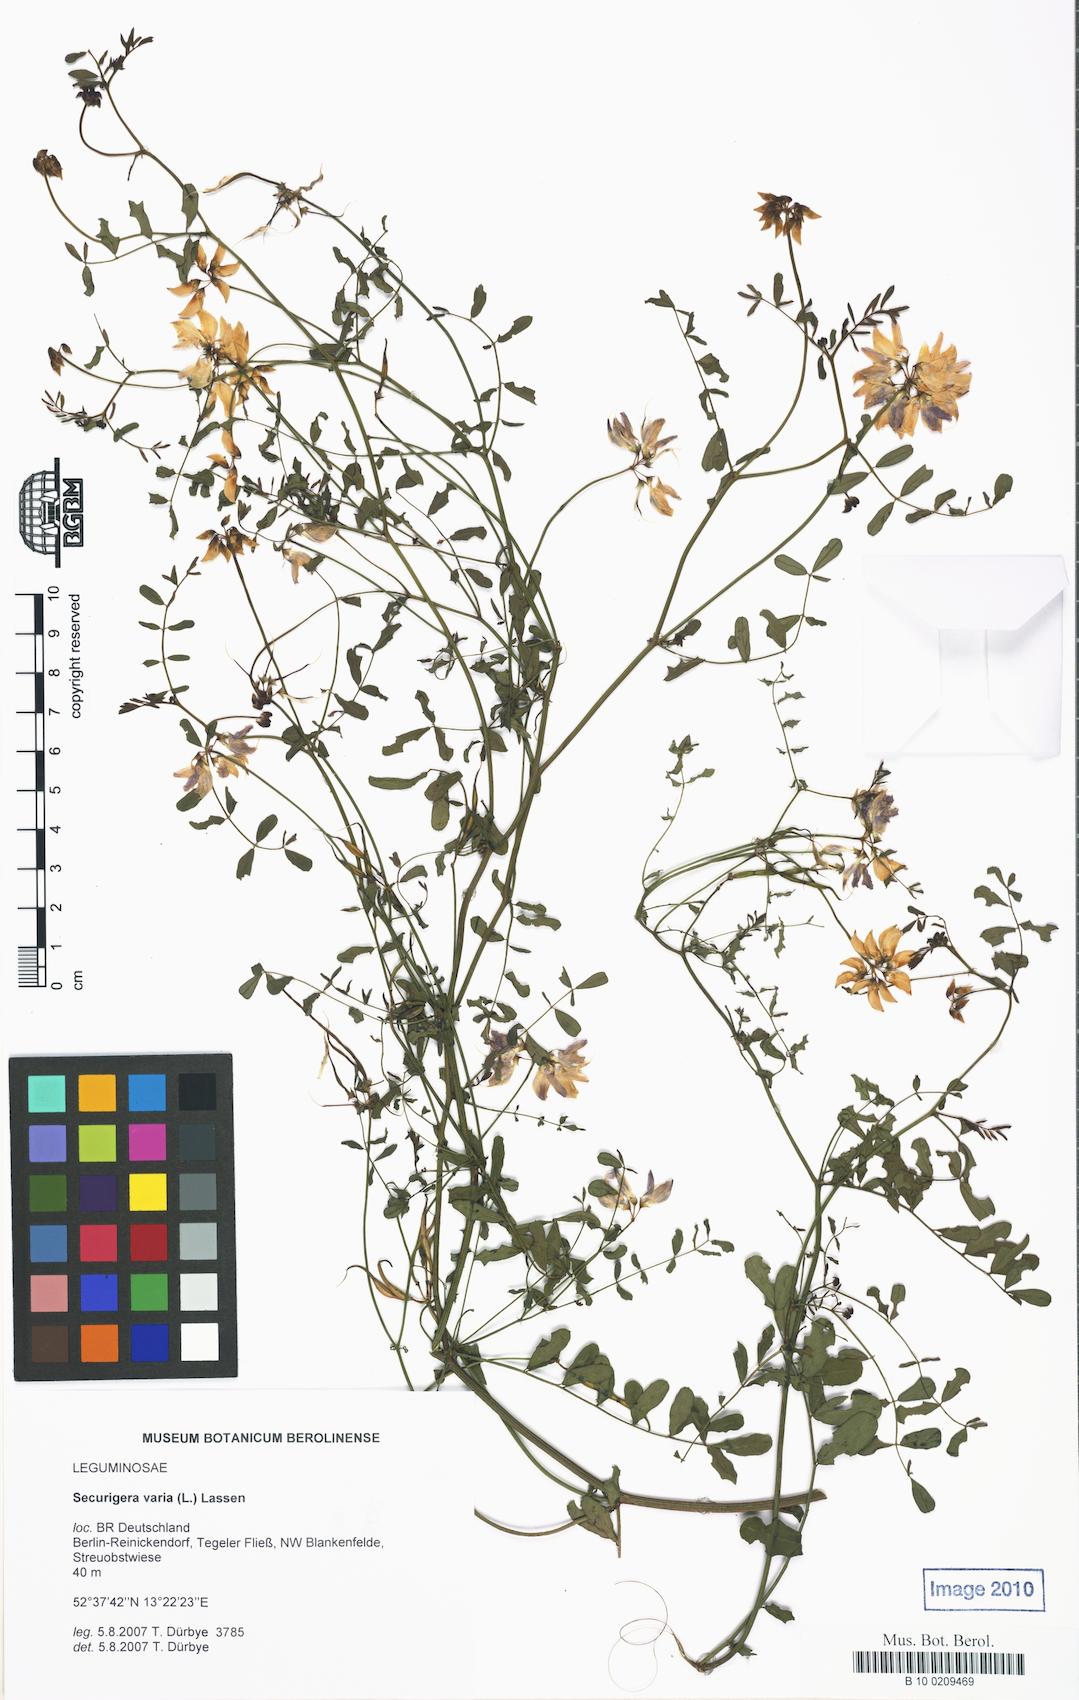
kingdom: Plantae
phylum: Tracheophyta
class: Magnoliopsida
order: Fabales
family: Fabaceae
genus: Coronilla
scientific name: Coronilla varia
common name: Crownvetch
